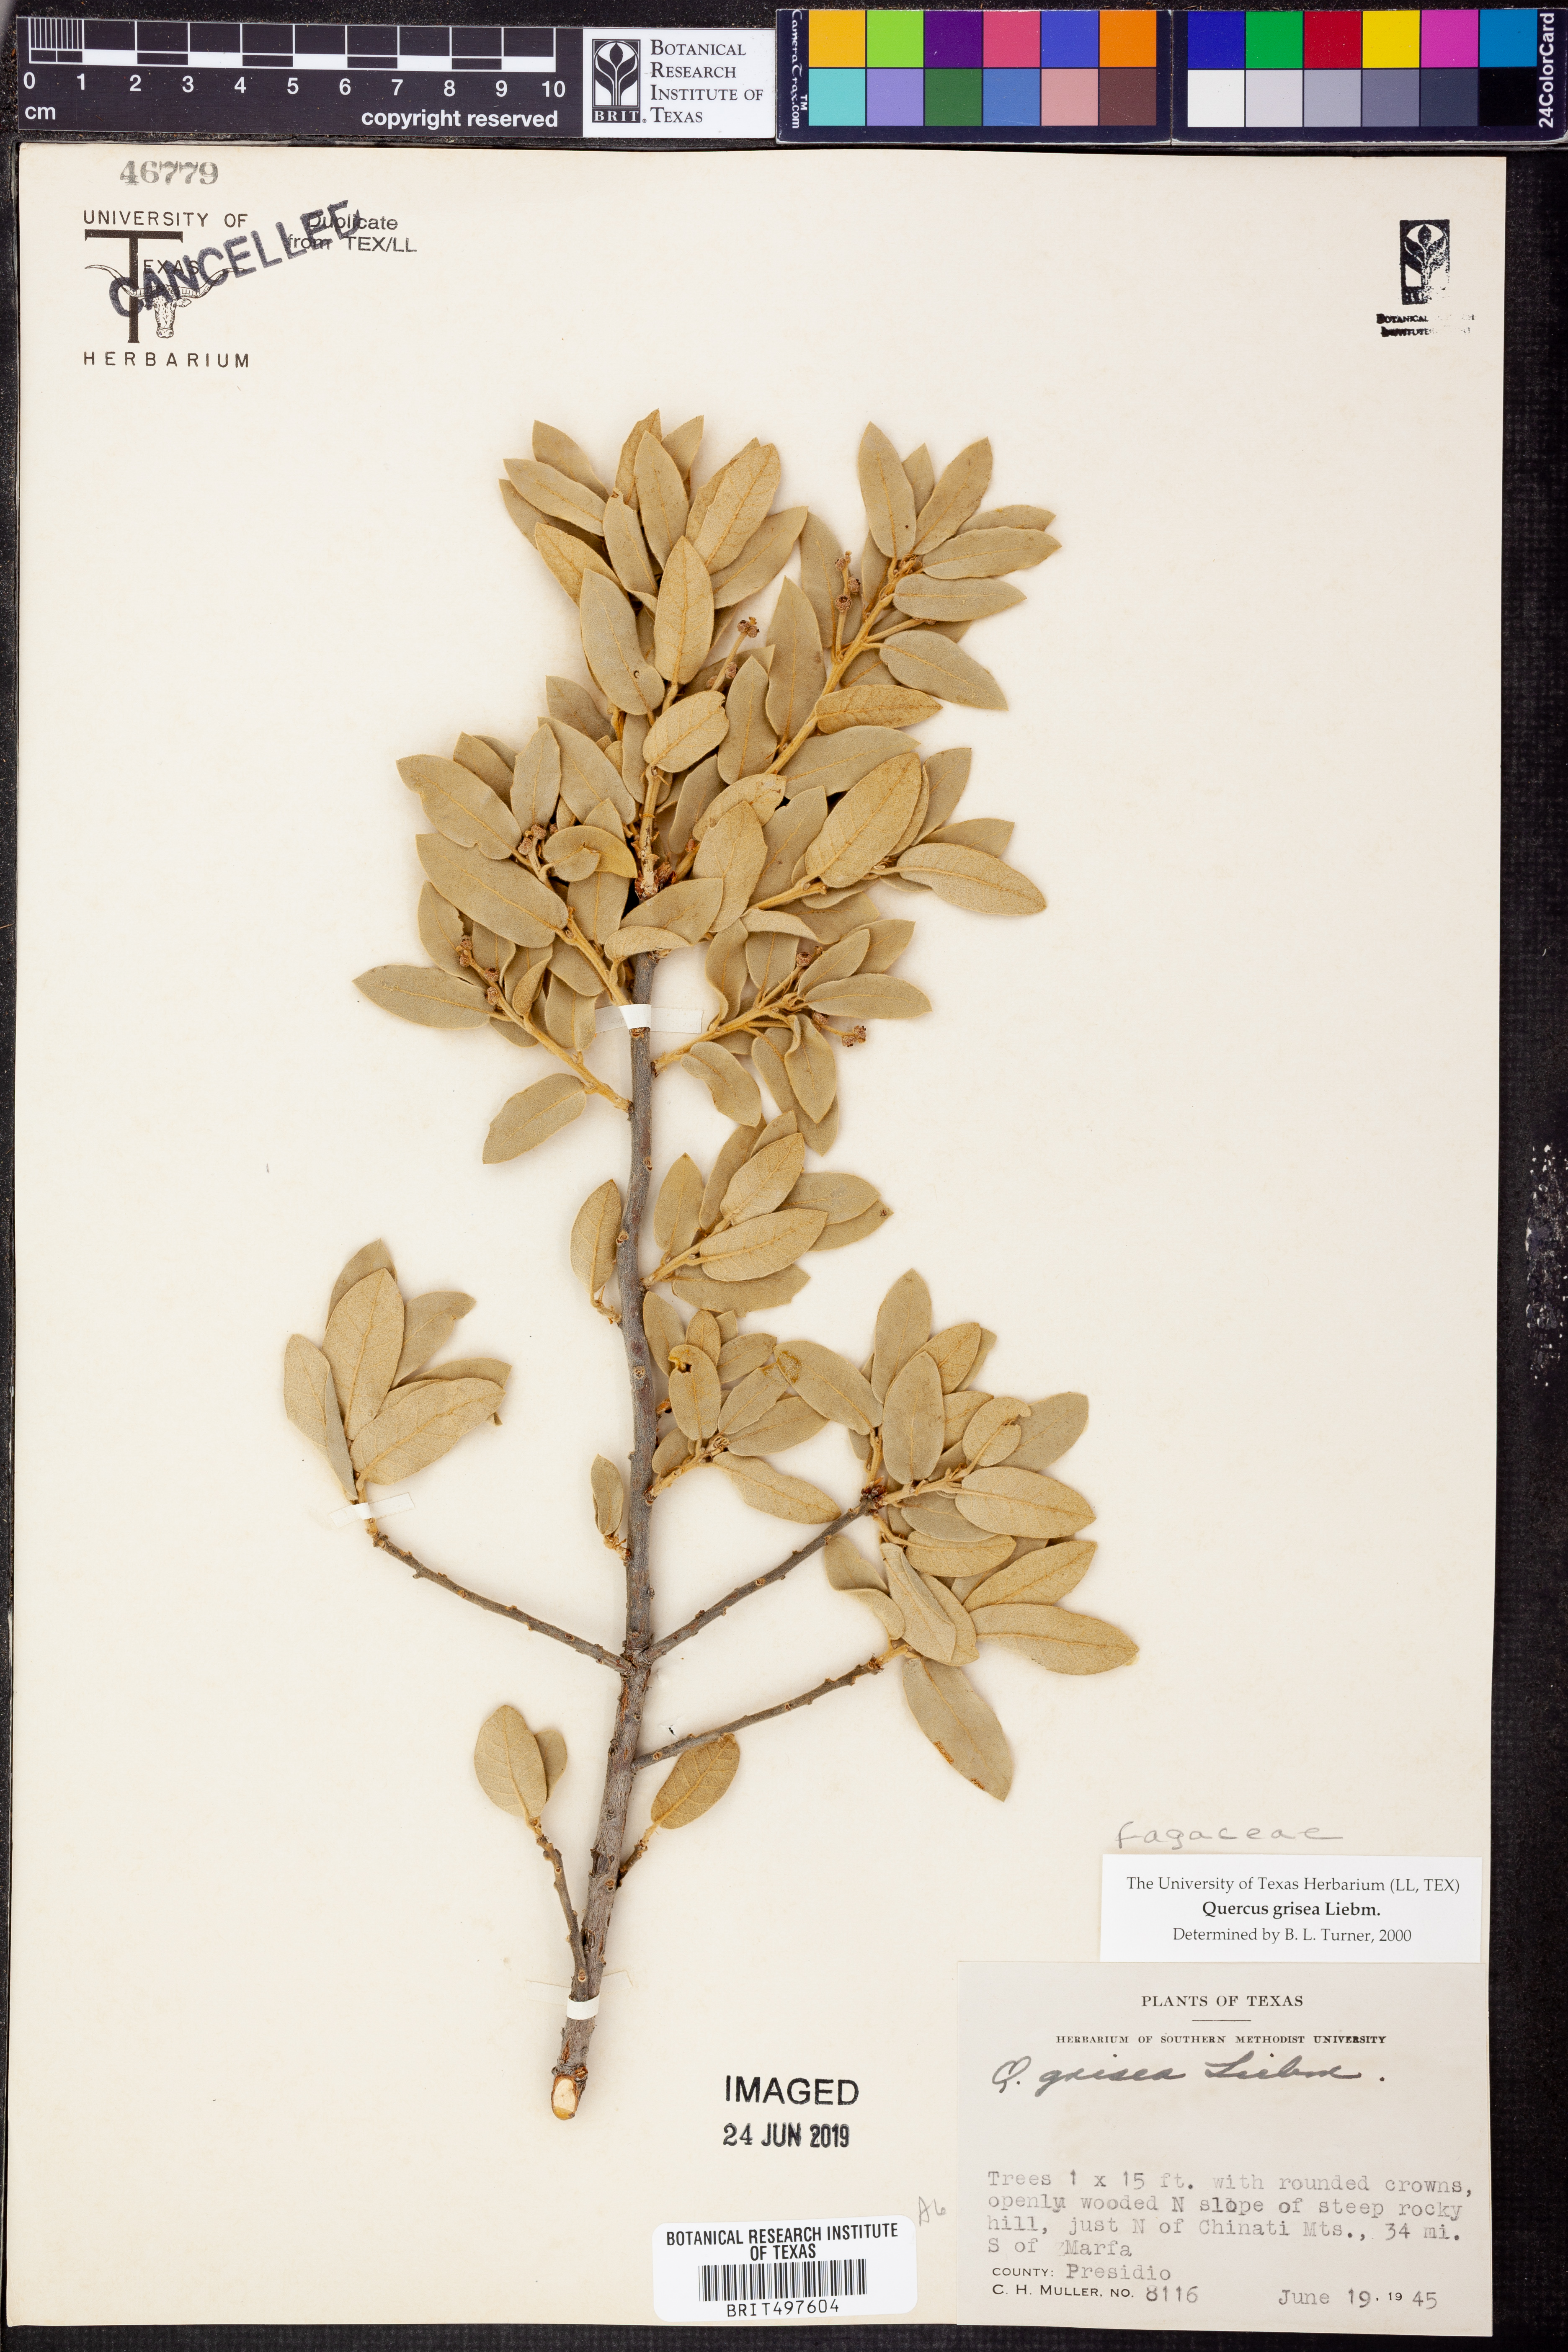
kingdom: Plantae
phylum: Tracheophyta
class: Magnoliopsida
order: Fagales
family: Fagaceae
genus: Quercus
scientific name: Quercus grisea
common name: Gray oak
